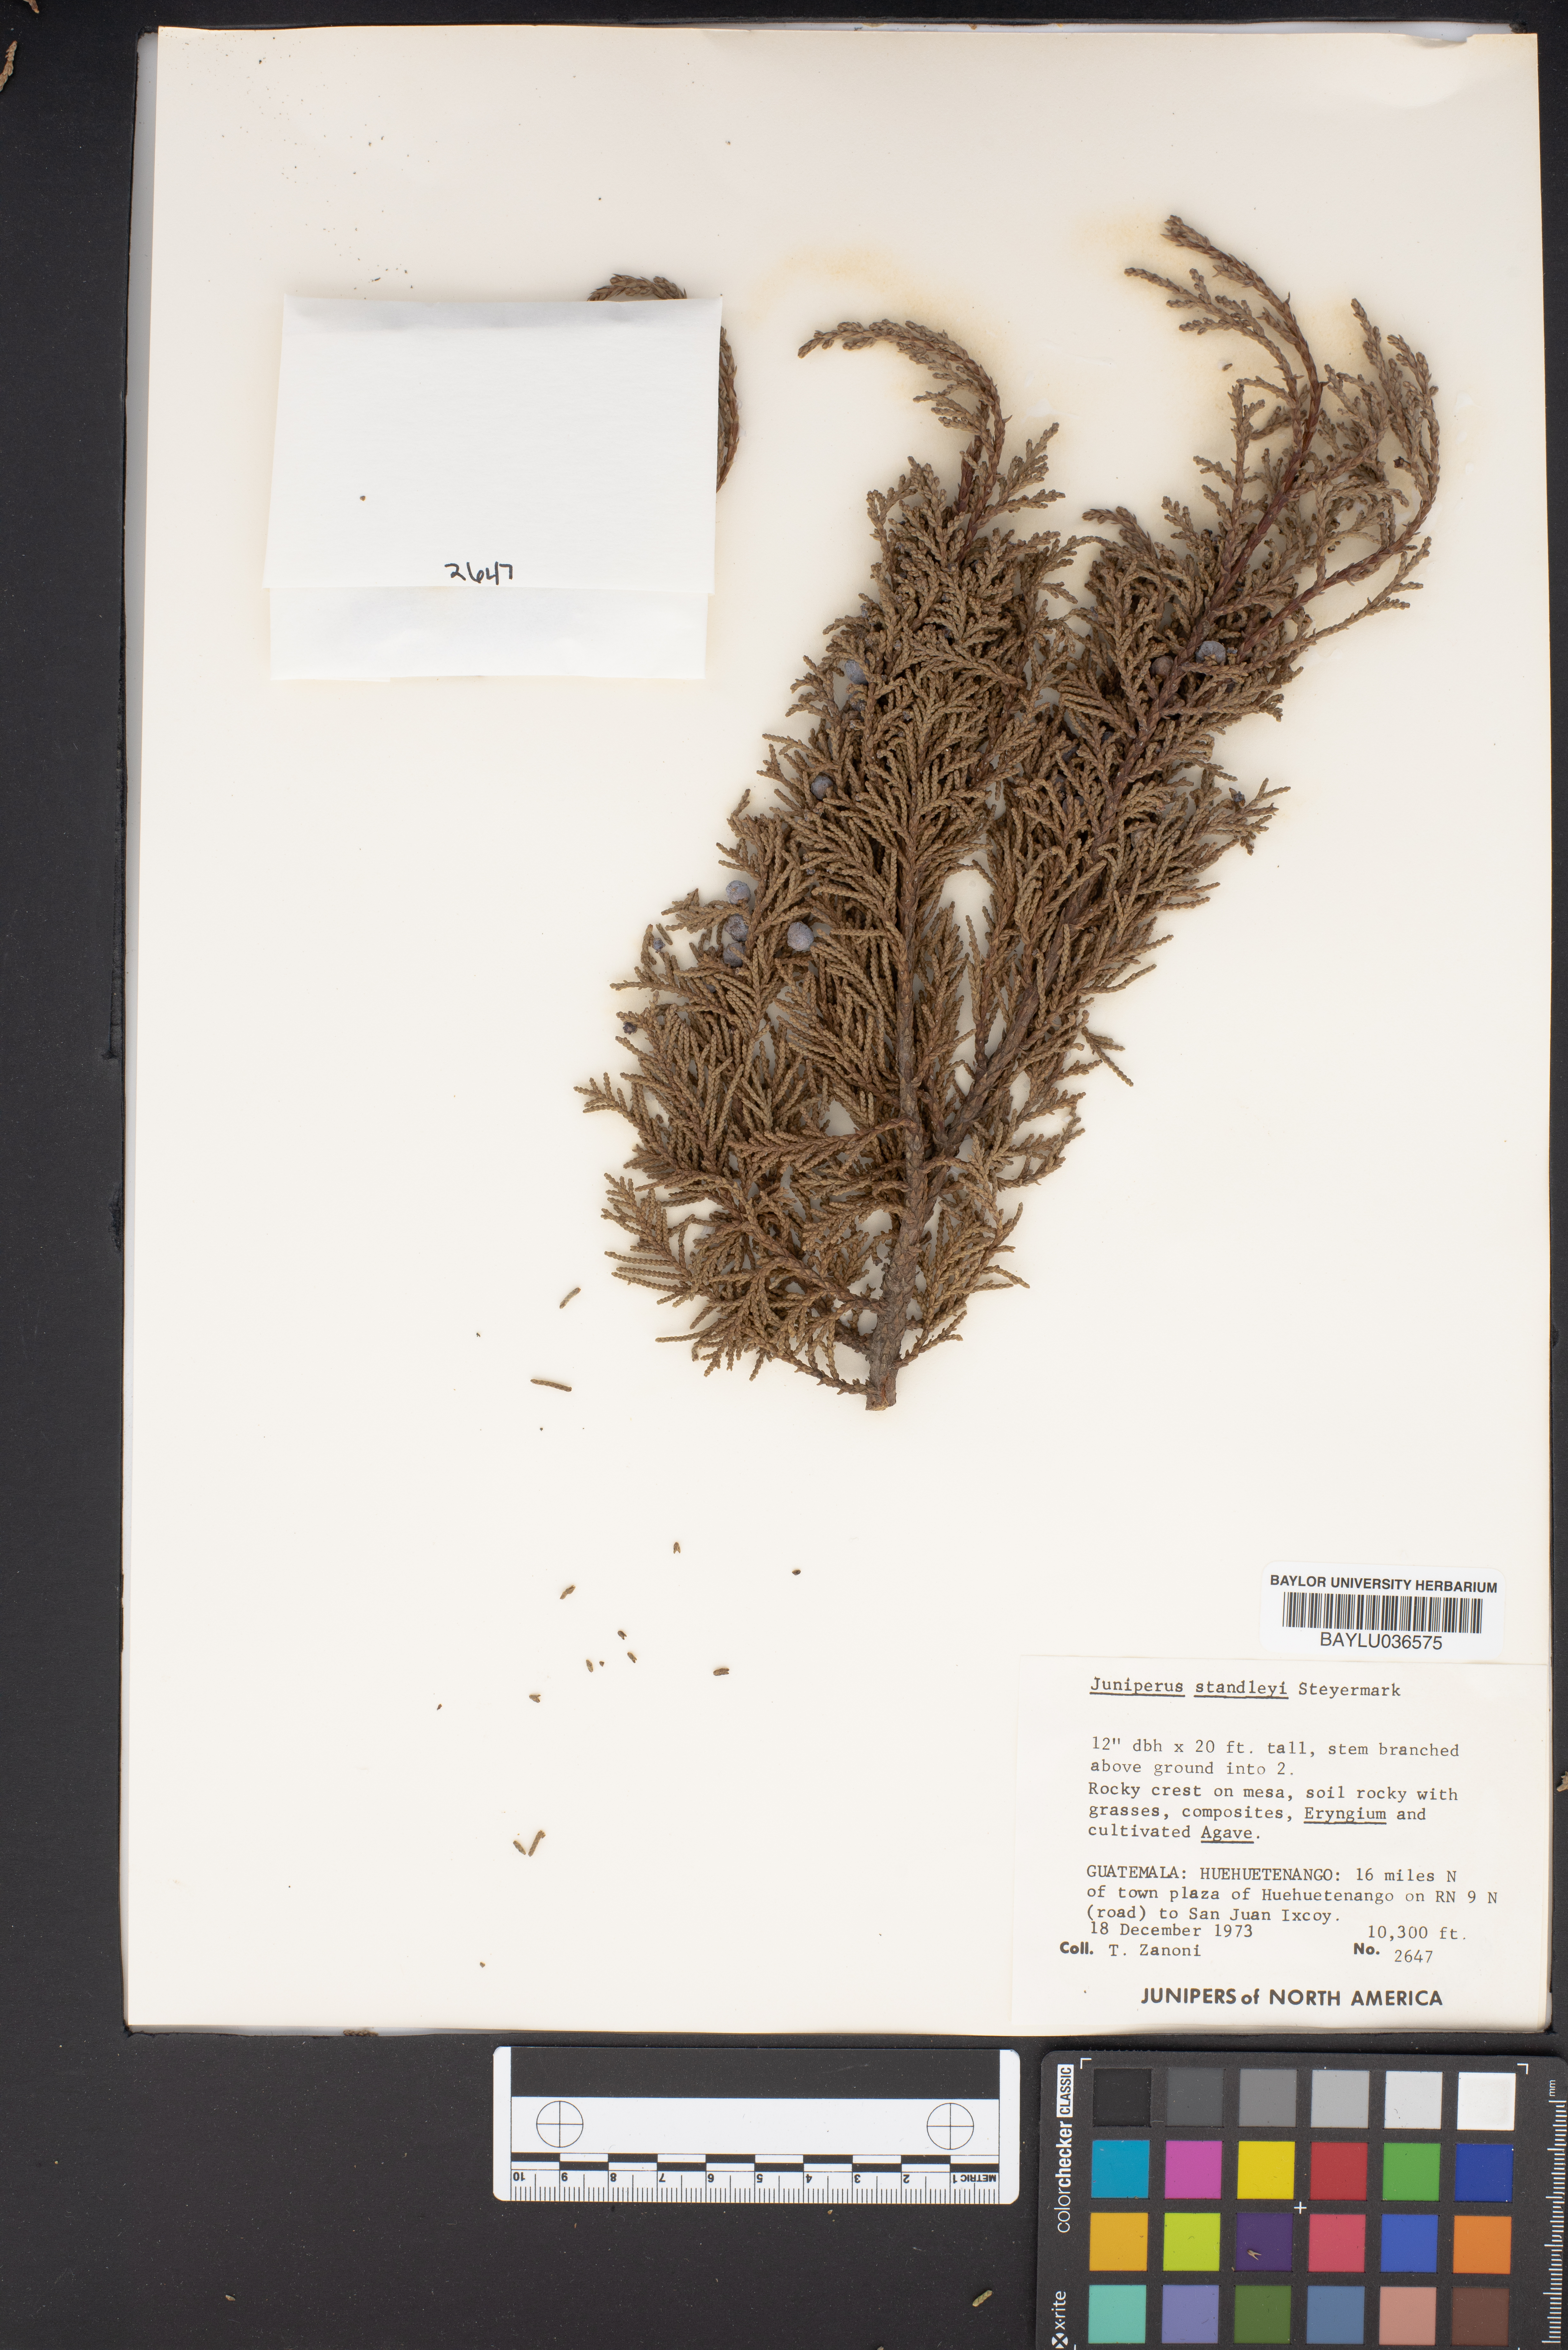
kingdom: Plantae
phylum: Tracheophyta
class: Pinopsida
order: Pinales
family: Cupressaceae
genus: Juniperus
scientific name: Juniperus standleyi
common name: Standley juniper
